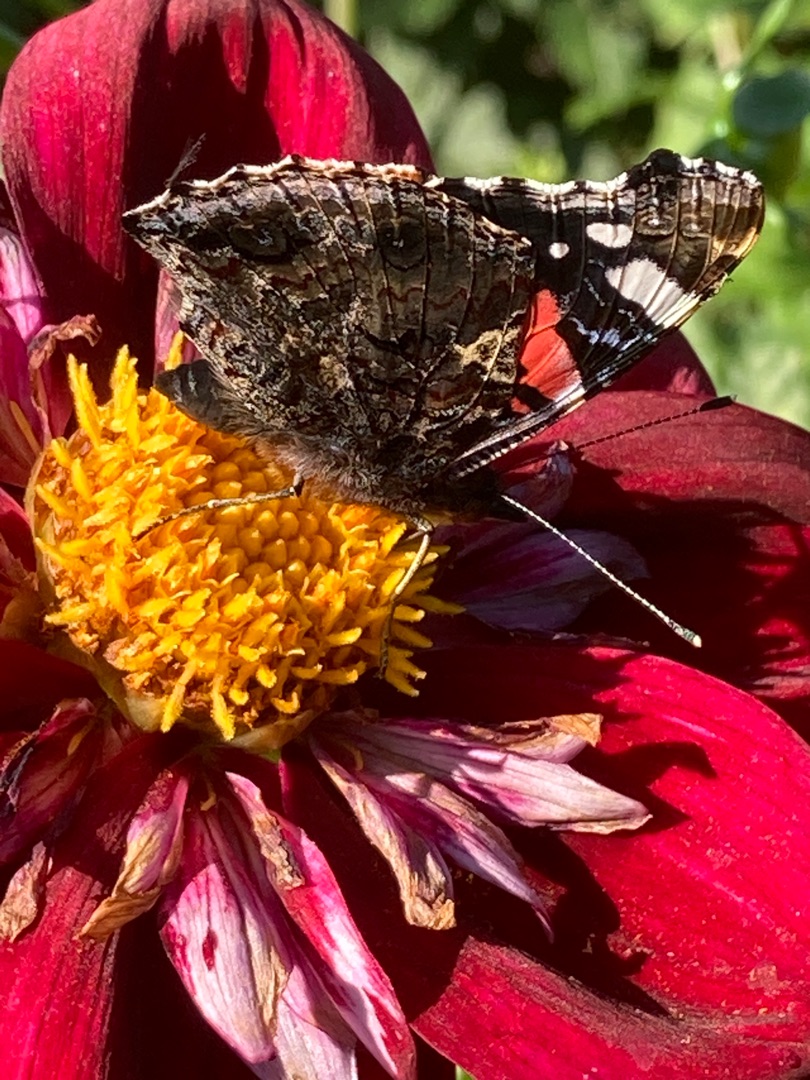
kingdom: Animalia
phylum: Arthropoda
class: Insecta
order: Lepidoptera
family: Nymphalidae
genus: Vanessa
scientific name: Vanessa atalanta
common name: Admiral
